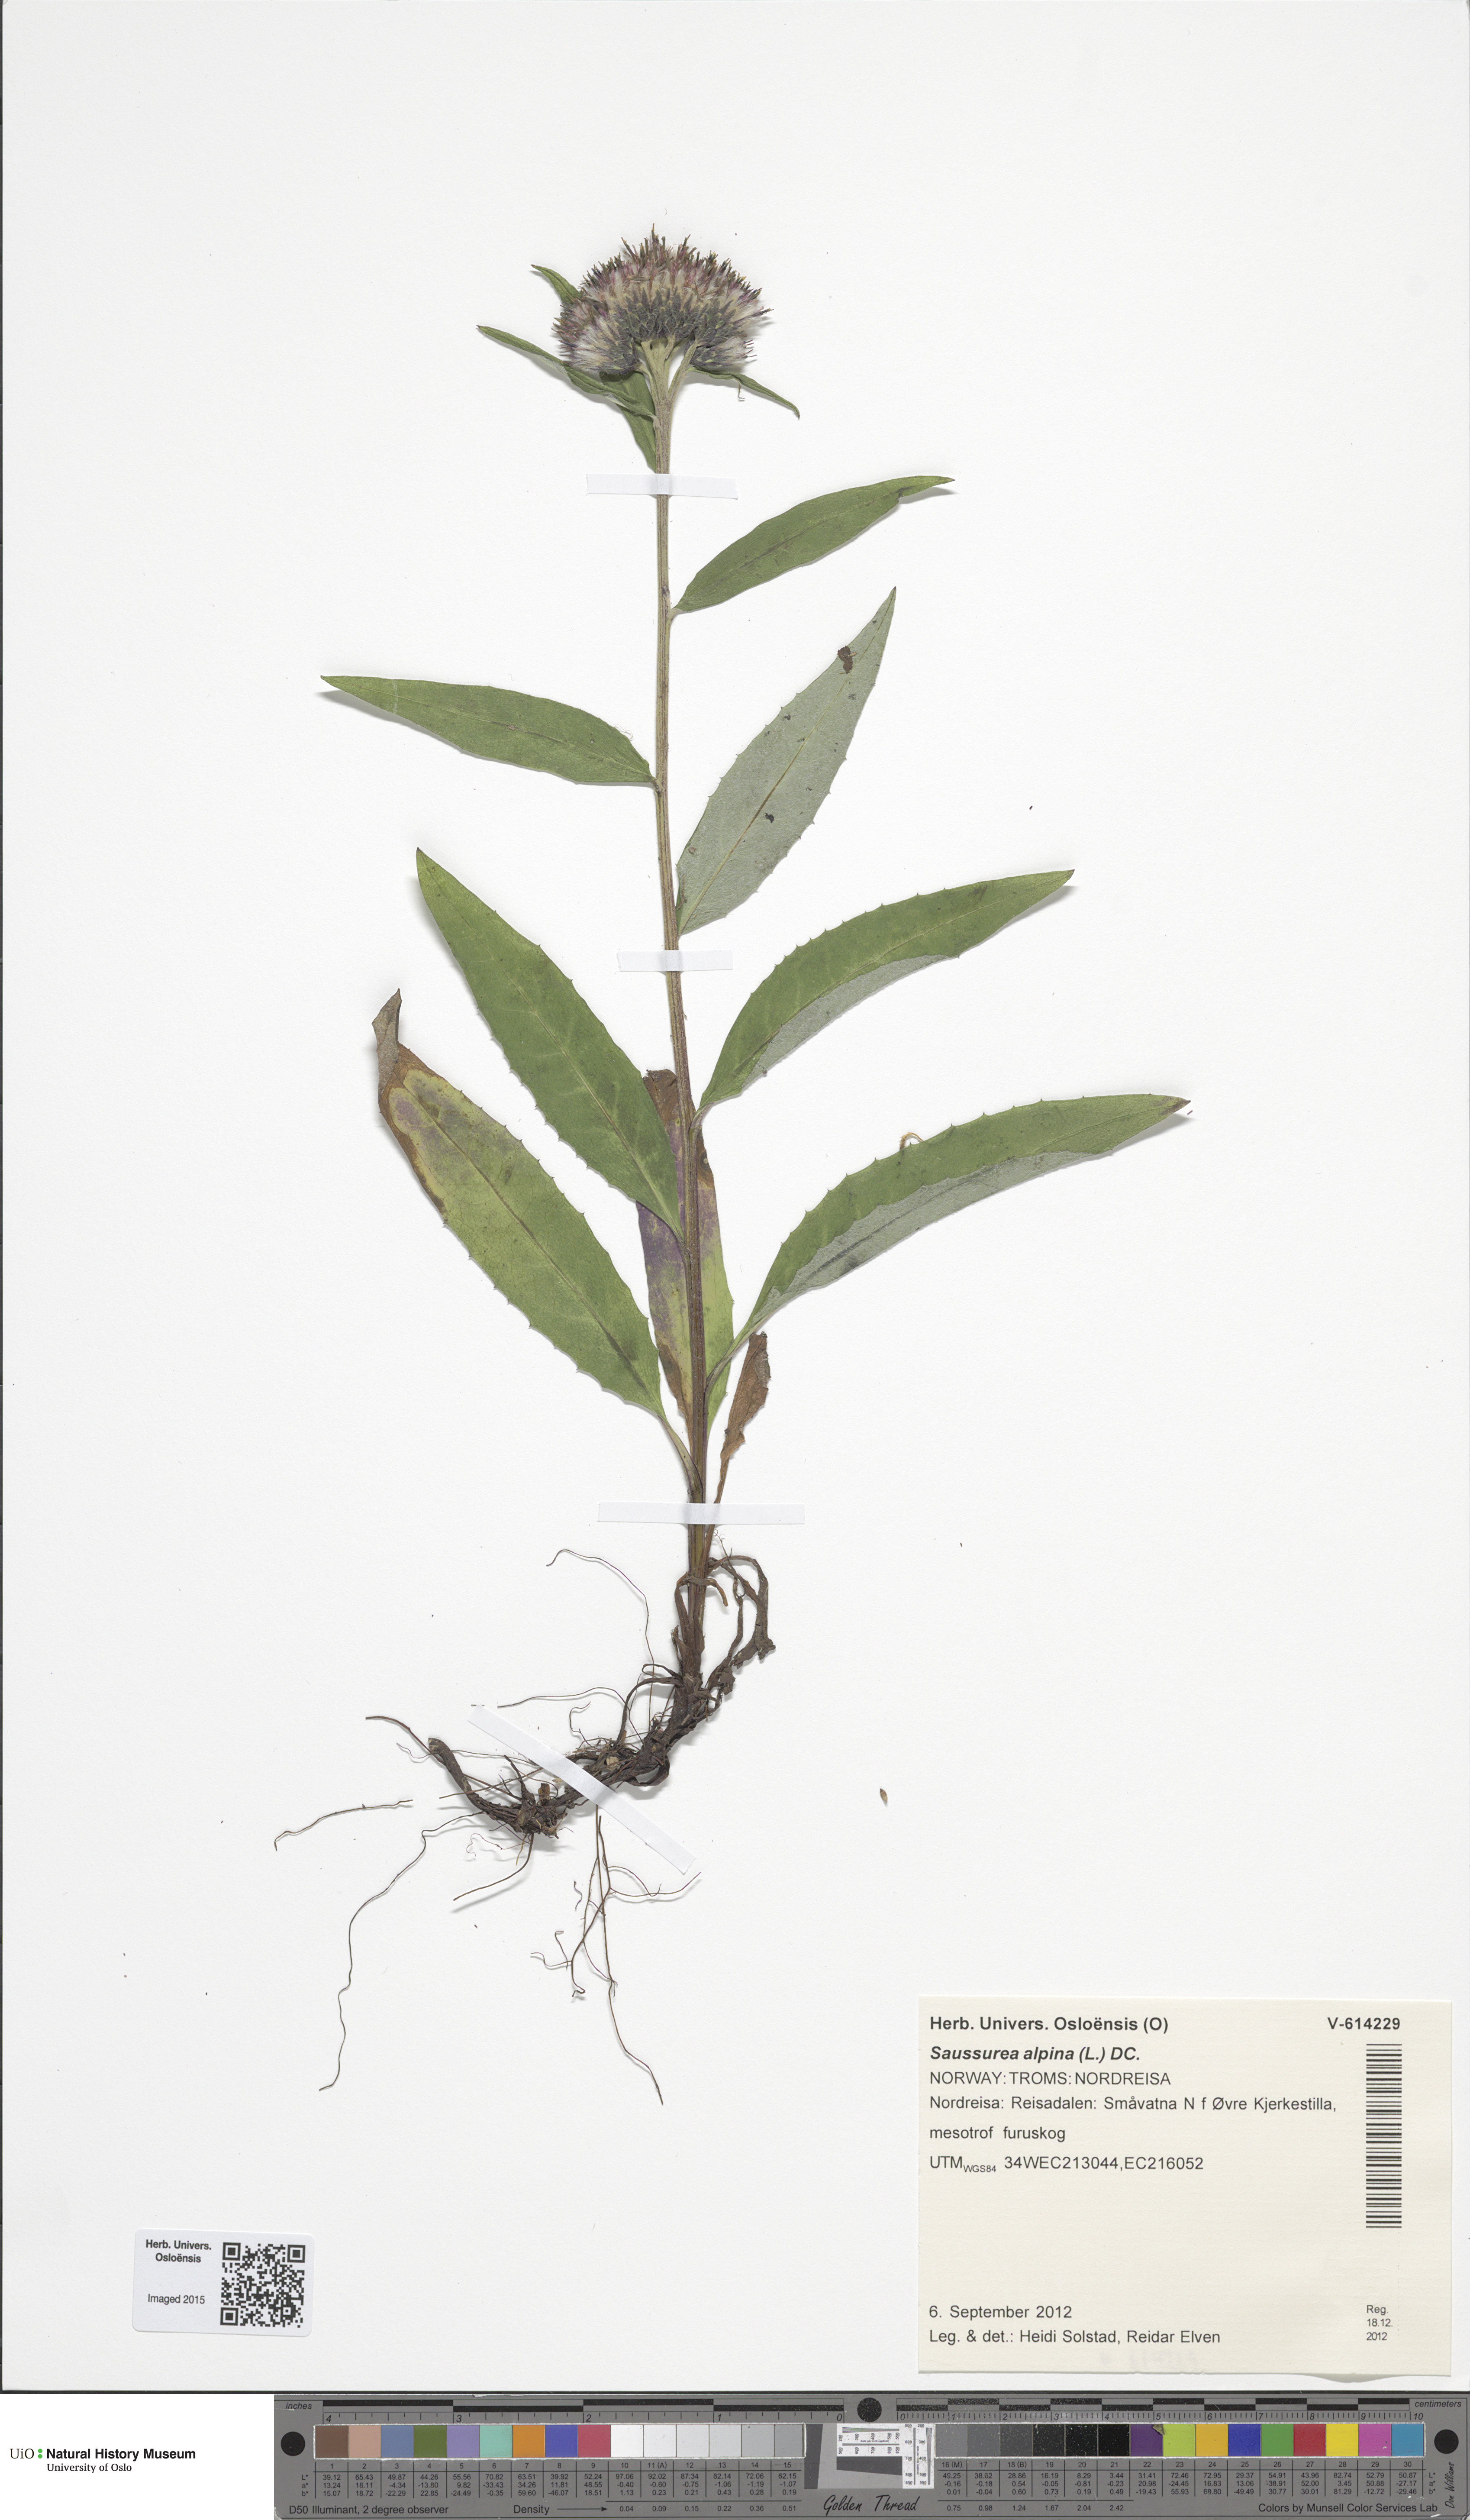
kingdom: Plantae
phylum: Tracheophyta
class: Magnoliopsida
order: Asterales
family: Asteraceae
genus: Saussurea
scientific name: Saussurea alpina
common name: Alpine saw-wort
